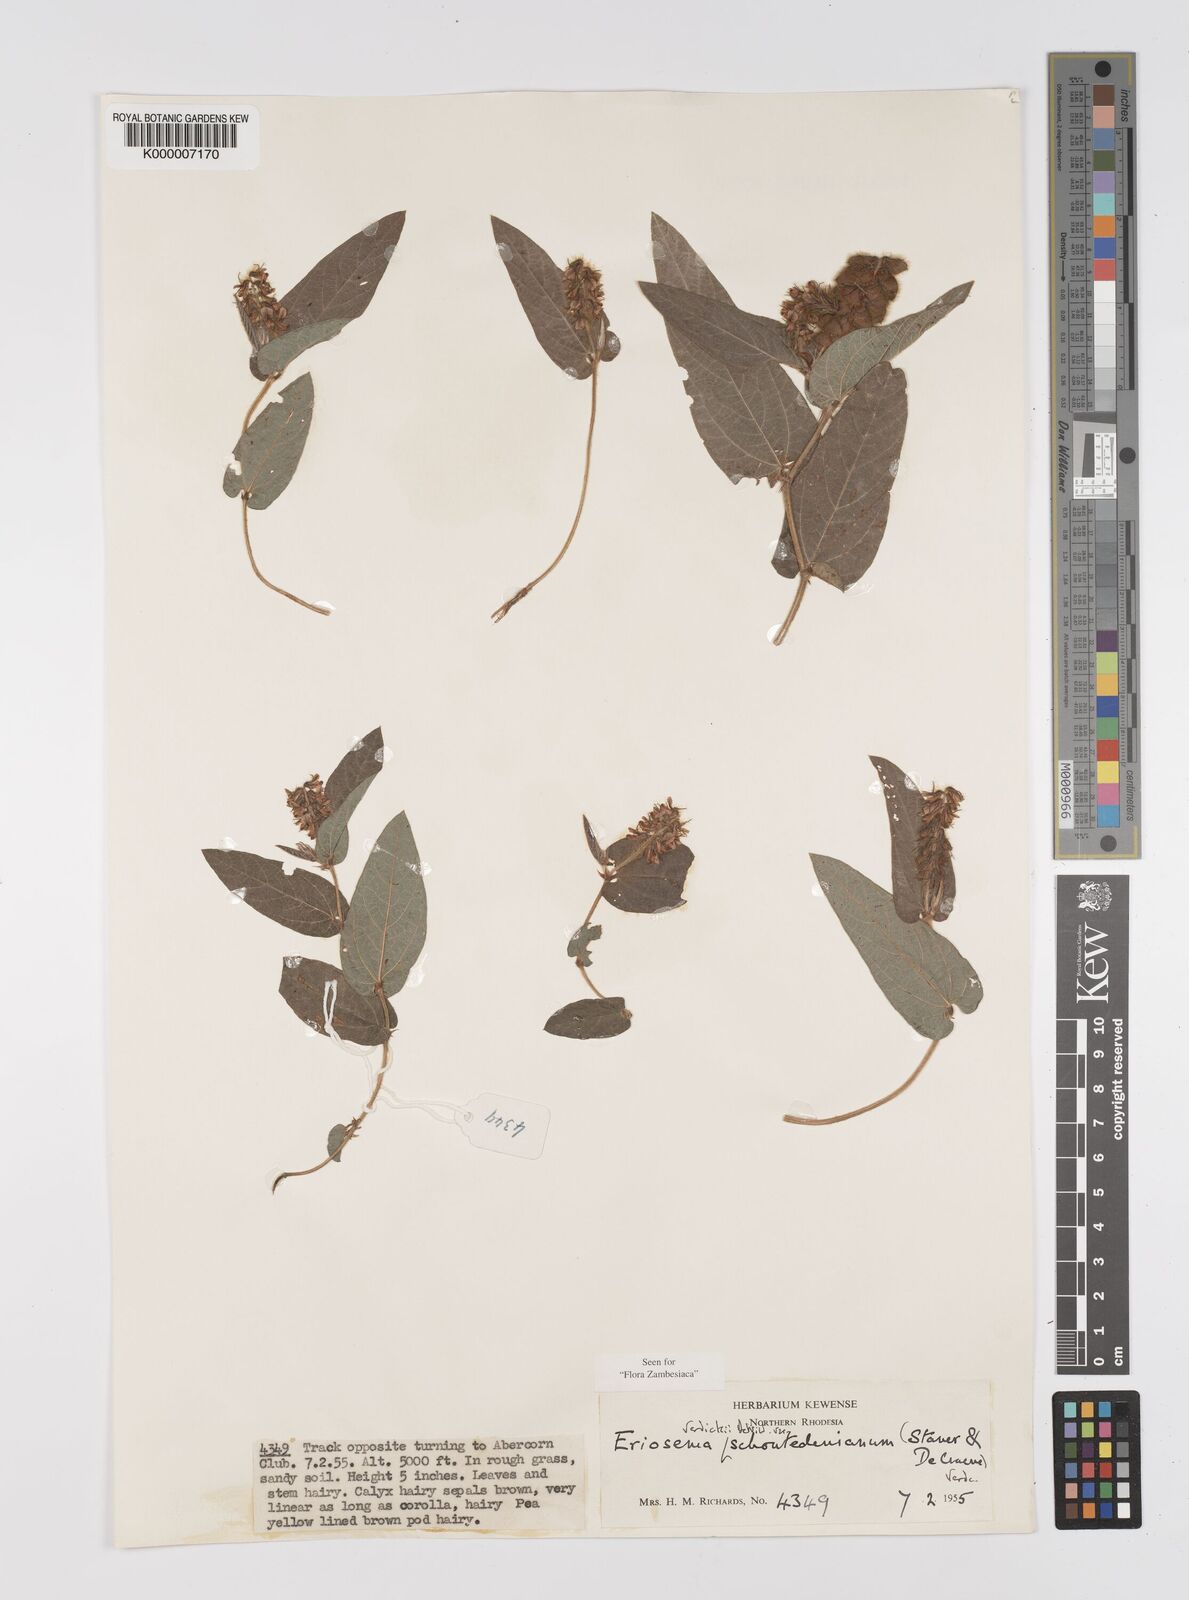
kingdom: Plantae
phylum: Tracheophyta
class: Magnoliopsida
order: Fabales
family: Fabaceae
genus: Eriosema
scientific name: Eriosema verdickii
